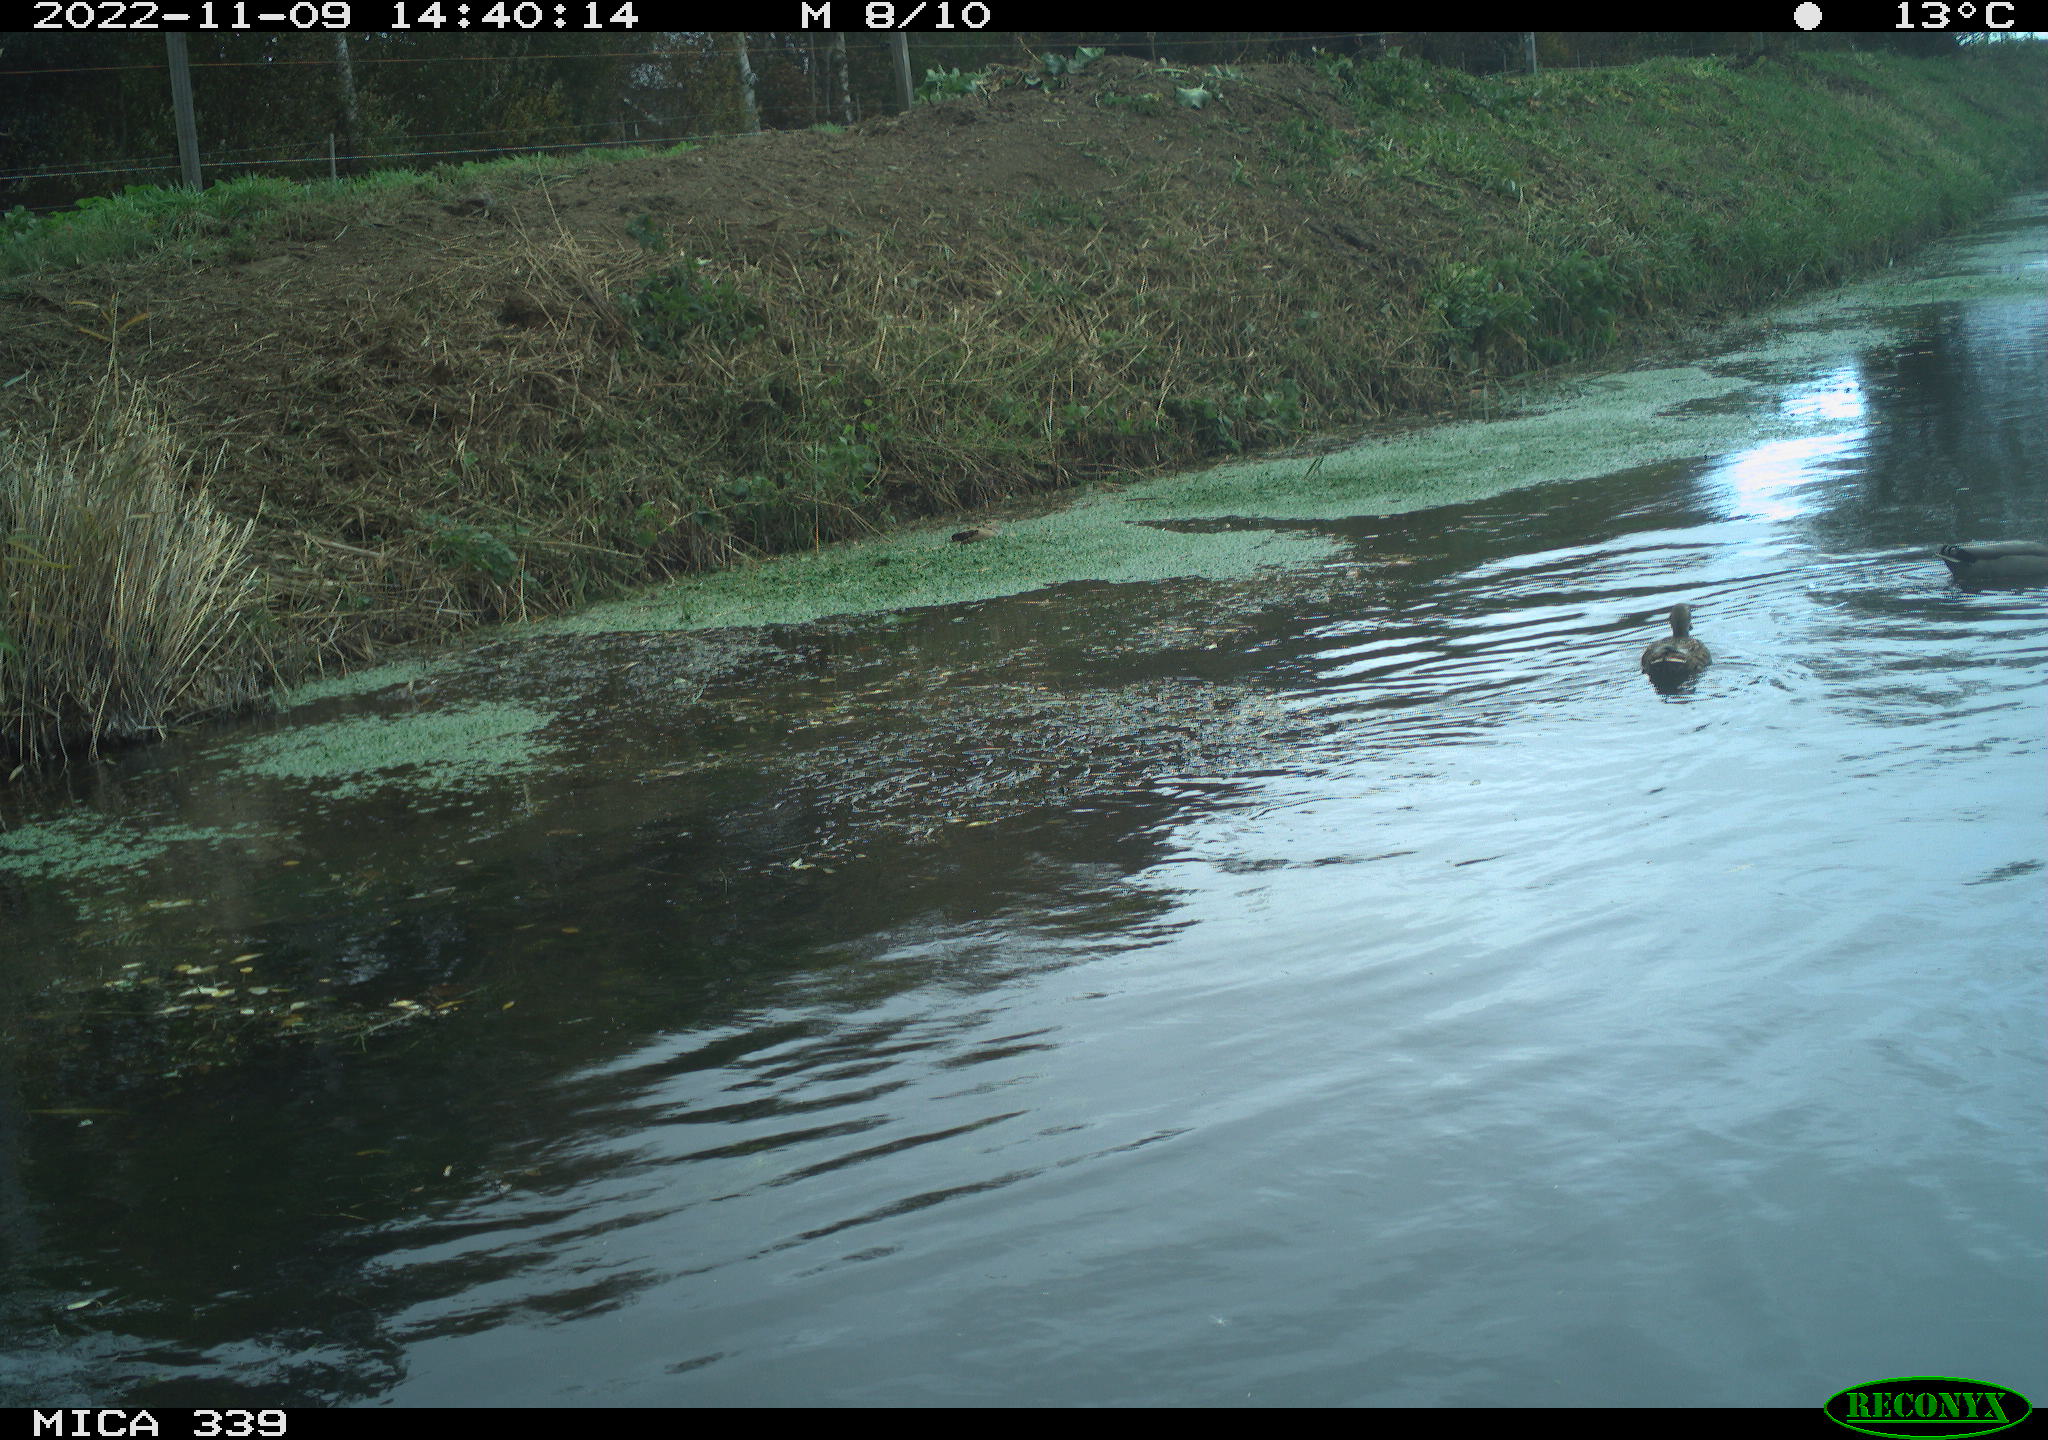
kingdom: Animalia
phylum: Chordata
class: Aves
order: Anseriformes
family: Anatidae
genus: Anas
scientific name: Anas platyrhynchos
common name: Mallard
